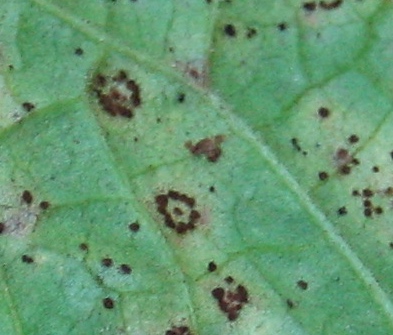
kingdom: Fungi
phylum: Basidiomycota
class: Pucciniomycetes
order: Pucciniales
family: Pucciniaceae
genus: Uromyces
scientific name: Uromyces rumicis
